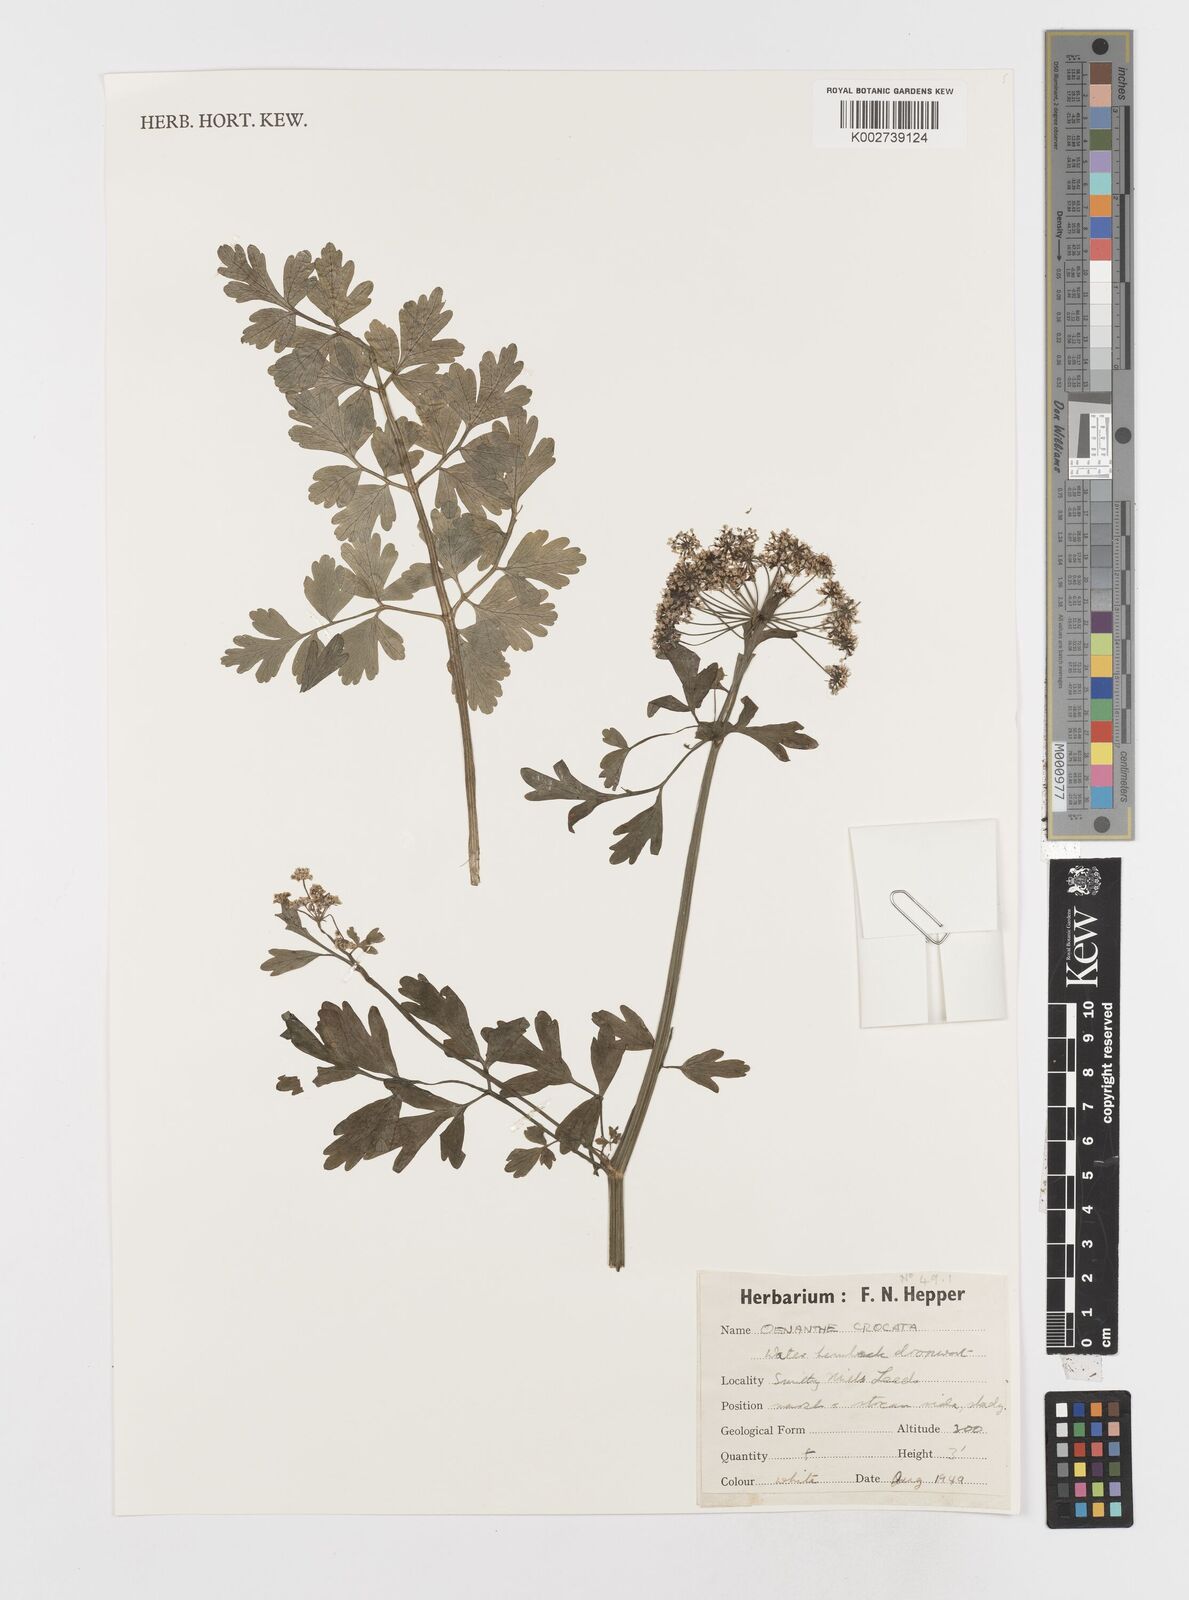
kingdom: Plantae
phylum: Tracheophyta
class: Magnoliopsida
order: Apiales
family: Apiaceae
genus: Oenanthe
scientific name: Oenanthe crocata
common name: Hemlock water-dropwort
